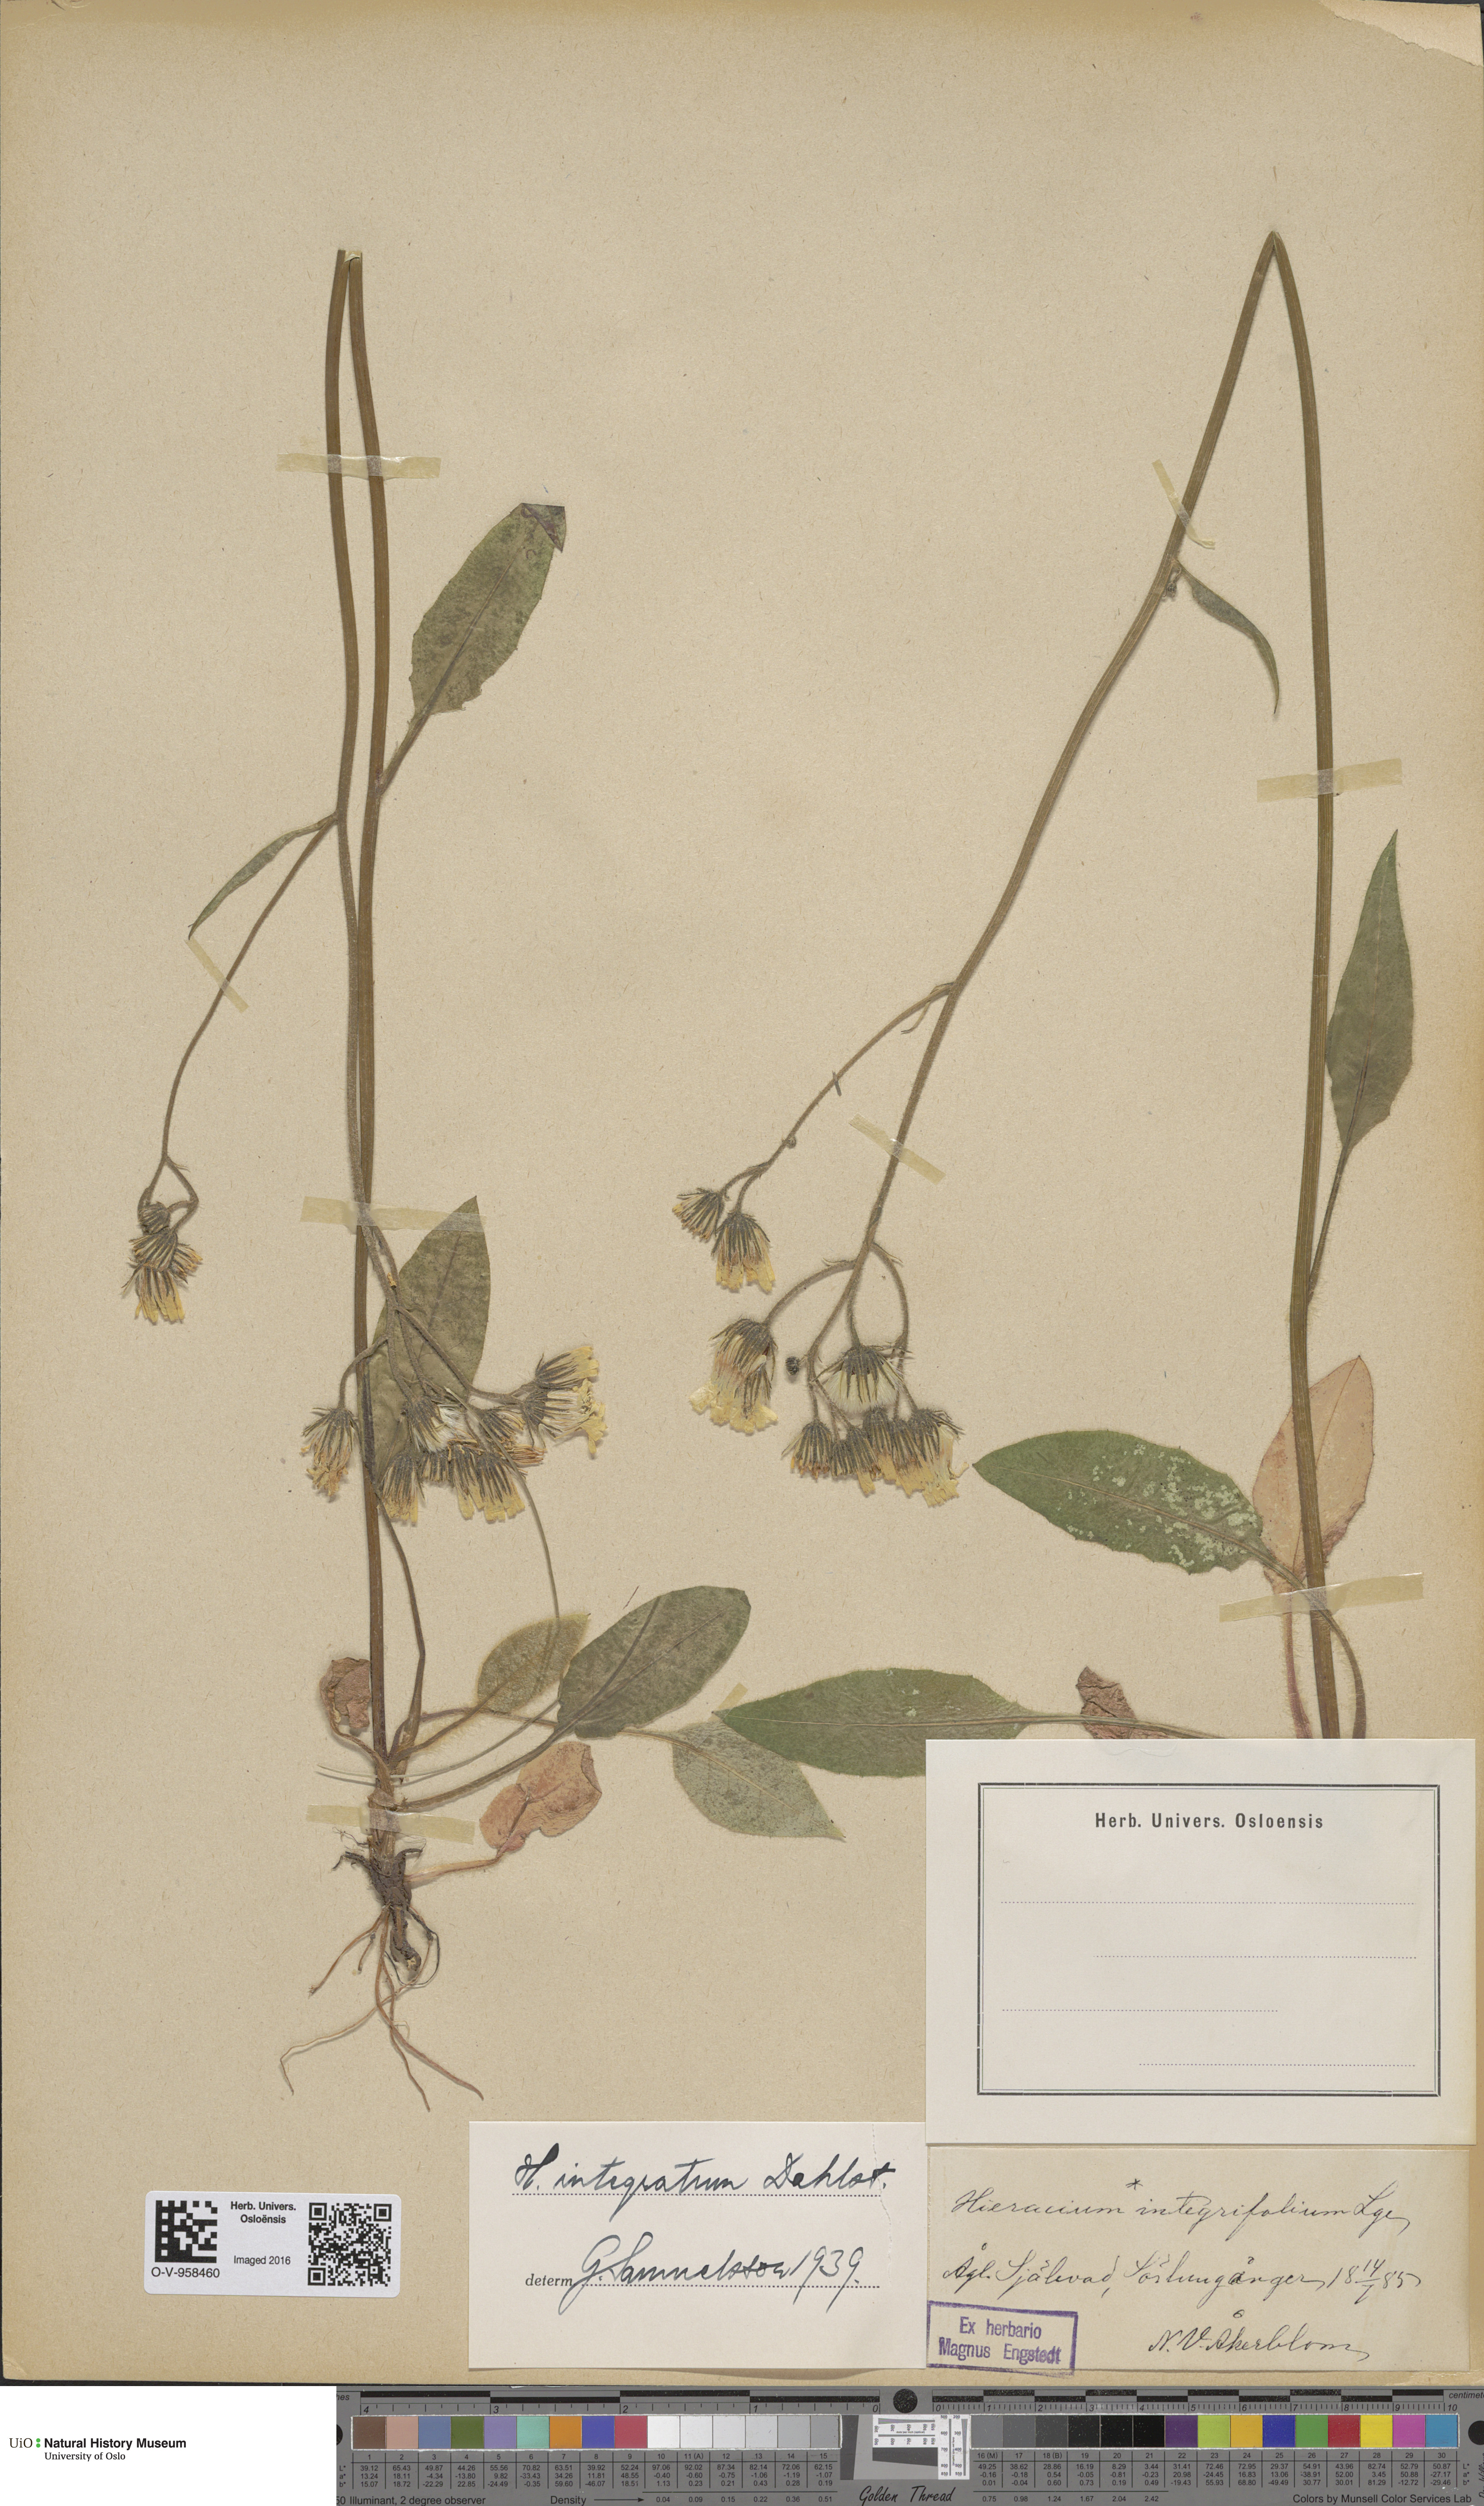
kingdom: Plantae
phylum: Tracheophyta
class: Magnoliopsida
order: Asterales
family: Asteraceae
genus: Hieracium
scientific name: Hieracium murorum
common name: Wall hawkweed
